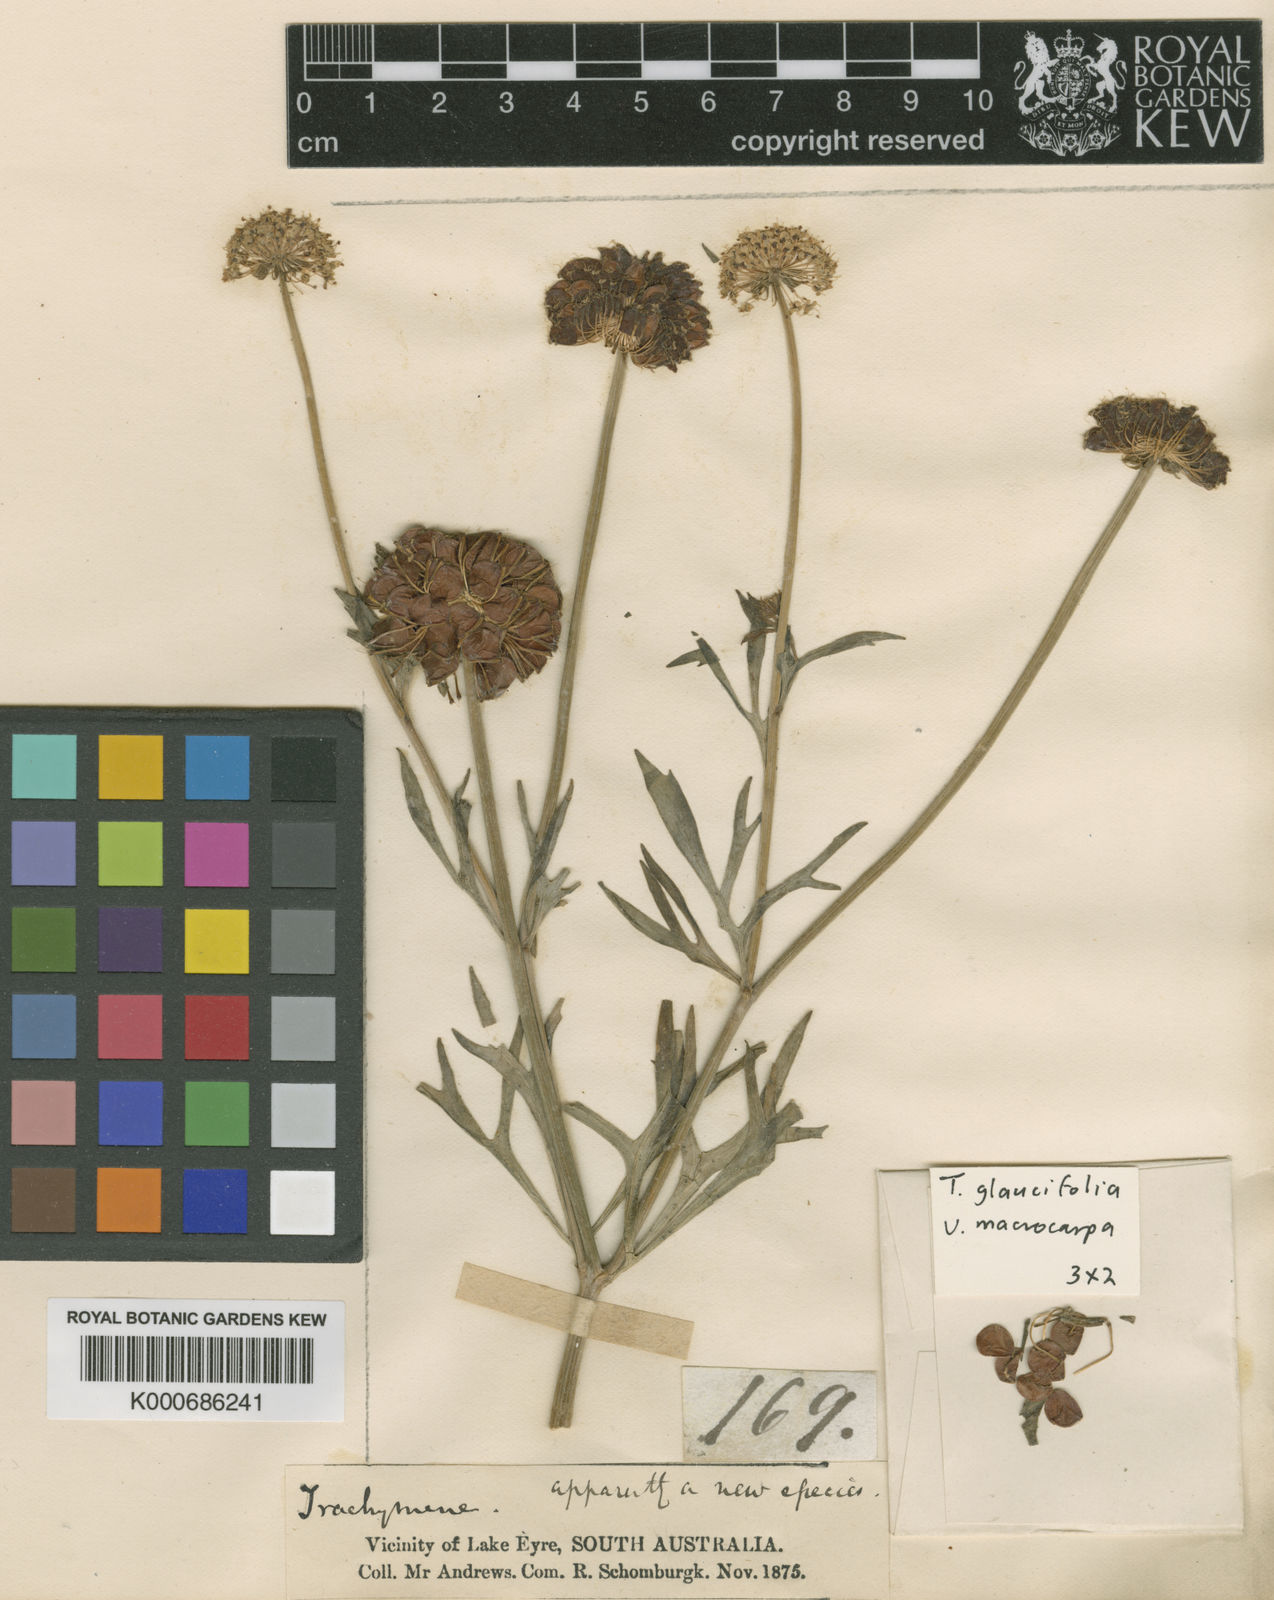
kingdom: Plantae
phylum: Tracheophyta
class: Magnoliopsida
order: Apiales
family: Araliaceae
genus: Trachymene
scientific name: Trachymene glaucifolia
